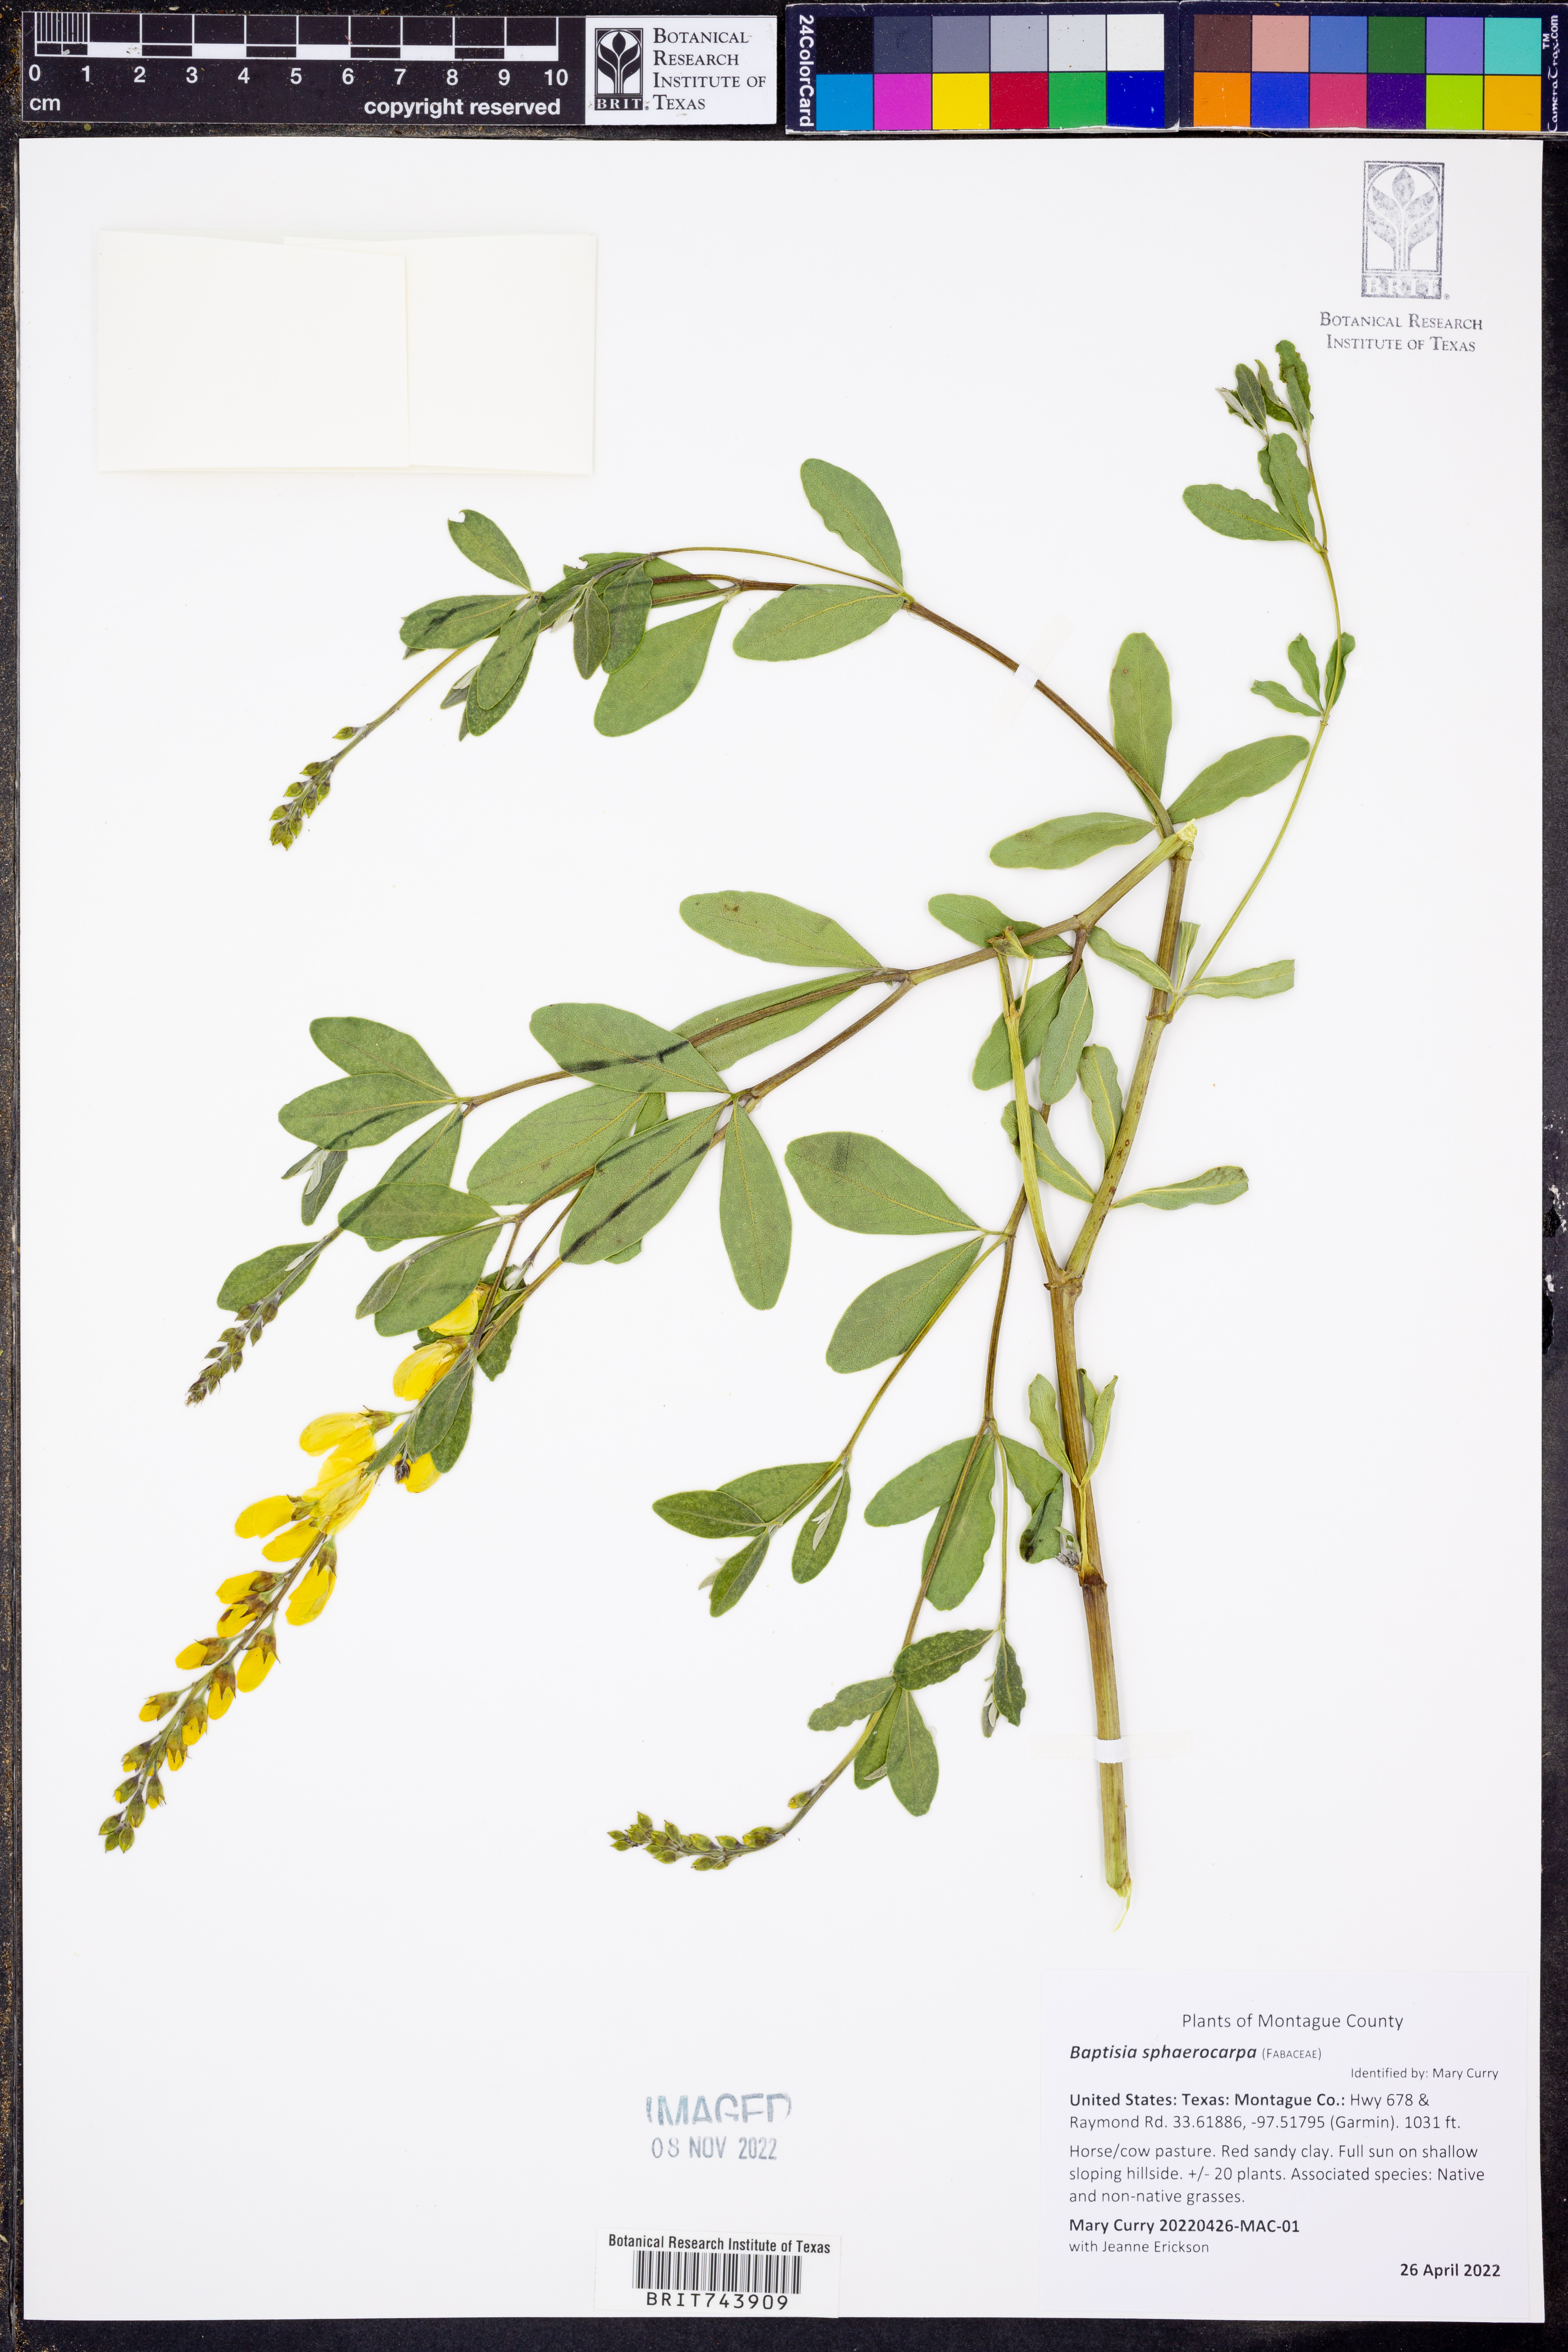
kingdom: Plantae
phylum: Tracheophyta
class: Magnoliopsida
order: Fabales
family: Fabaceae
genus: Baptisia
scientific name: Baptisia sphaerocarpa
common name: Round wild indigo
